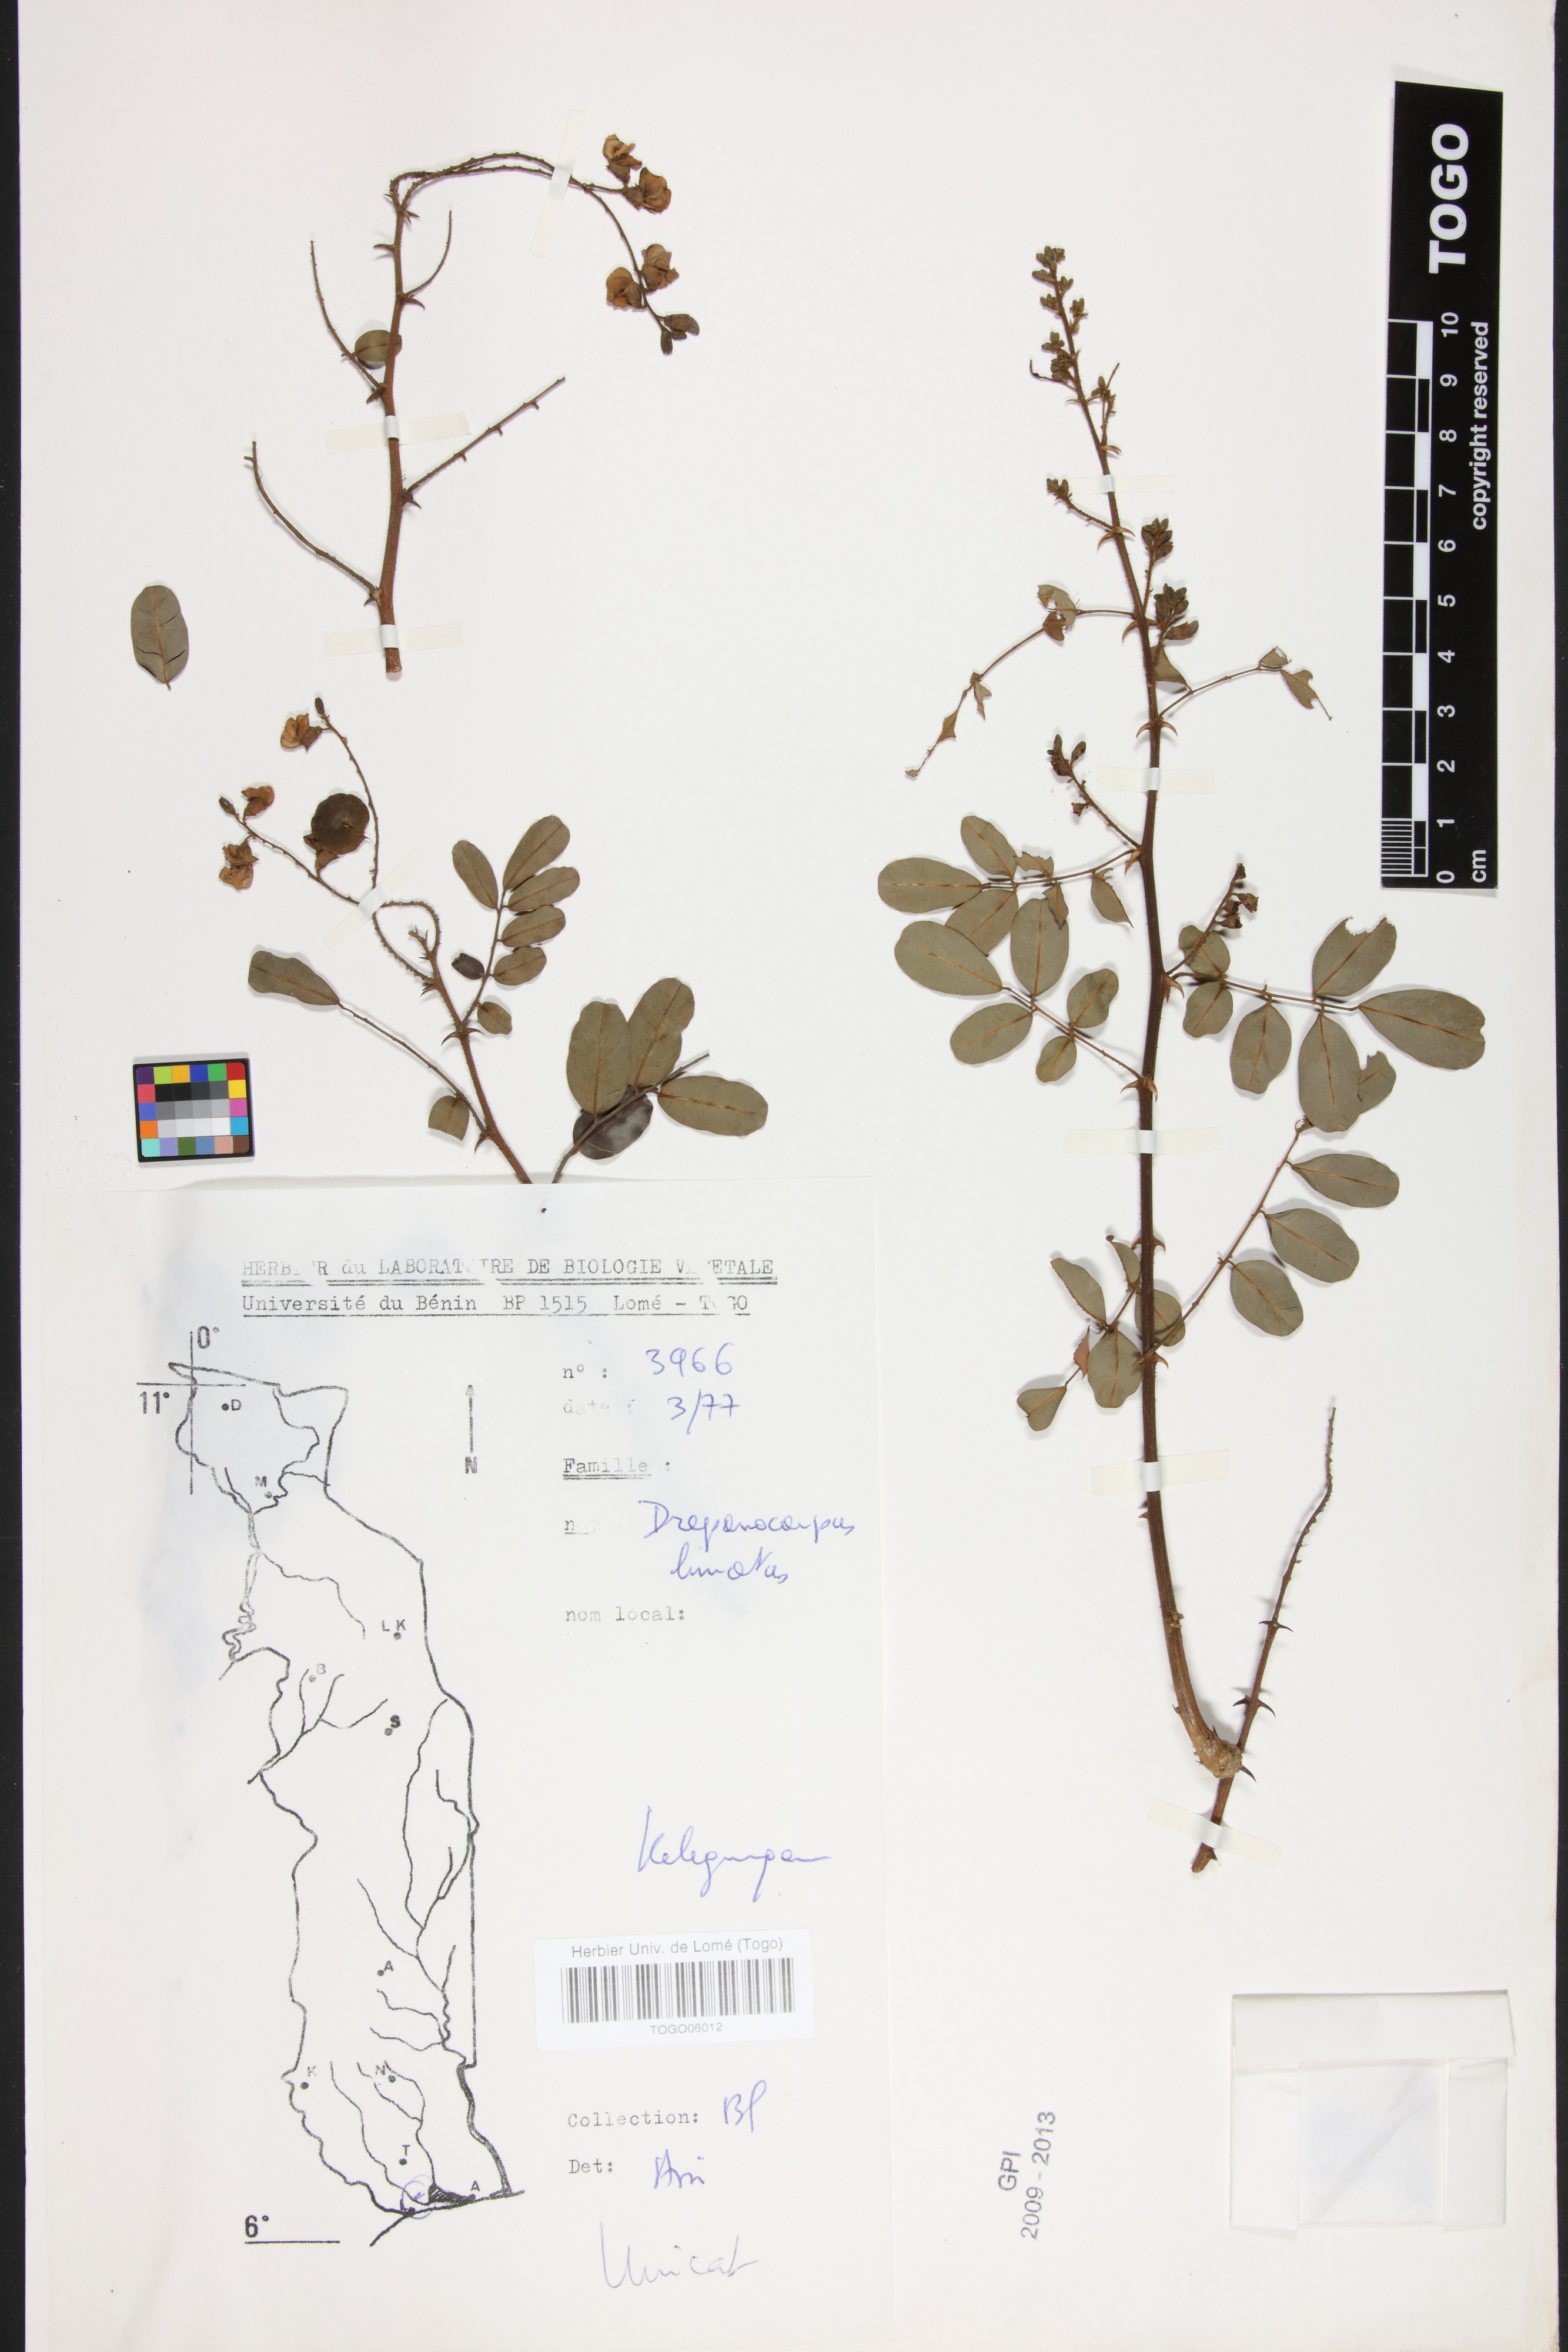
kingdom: Plantae
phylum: Tracheophyta
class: Magnoliopsida
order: Fabales
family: Fabaceae
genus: Machaerium
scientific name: Machaerium lunatum
